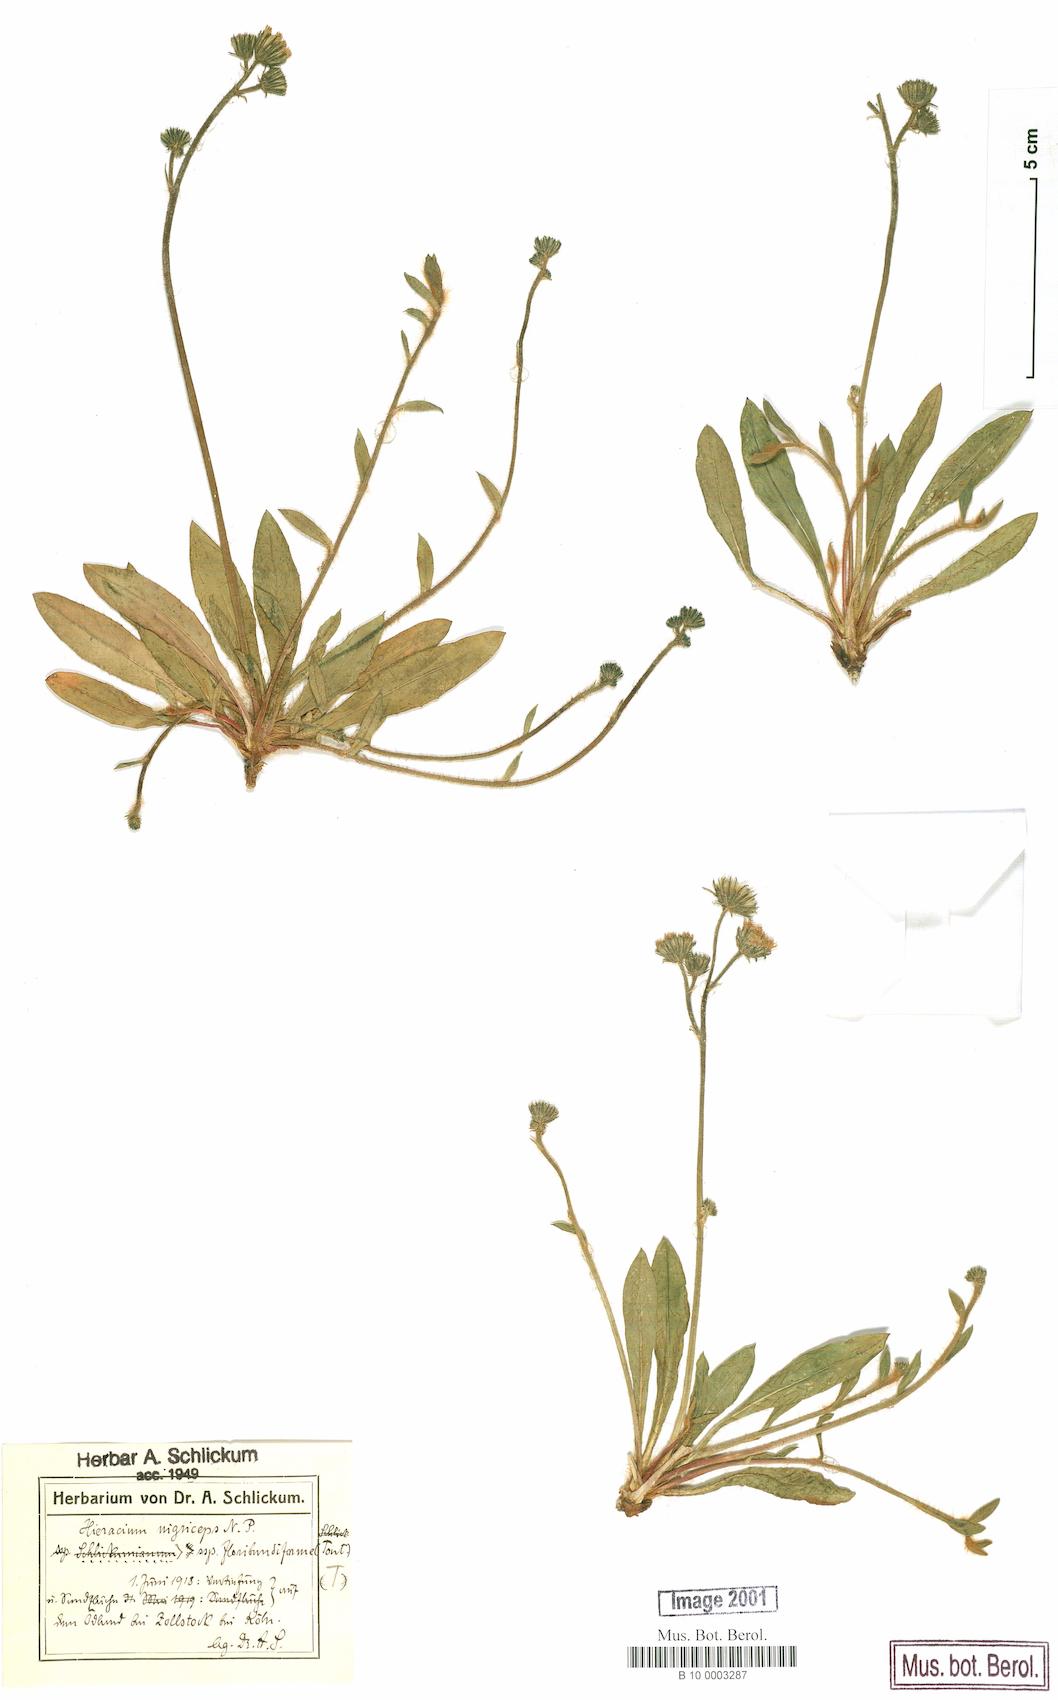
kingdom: Plantae
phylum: Tracheophyta
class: Magnoliopsida
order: Asterales
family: Asteraceae
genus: Pilosella
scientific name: Pilosella iserana
